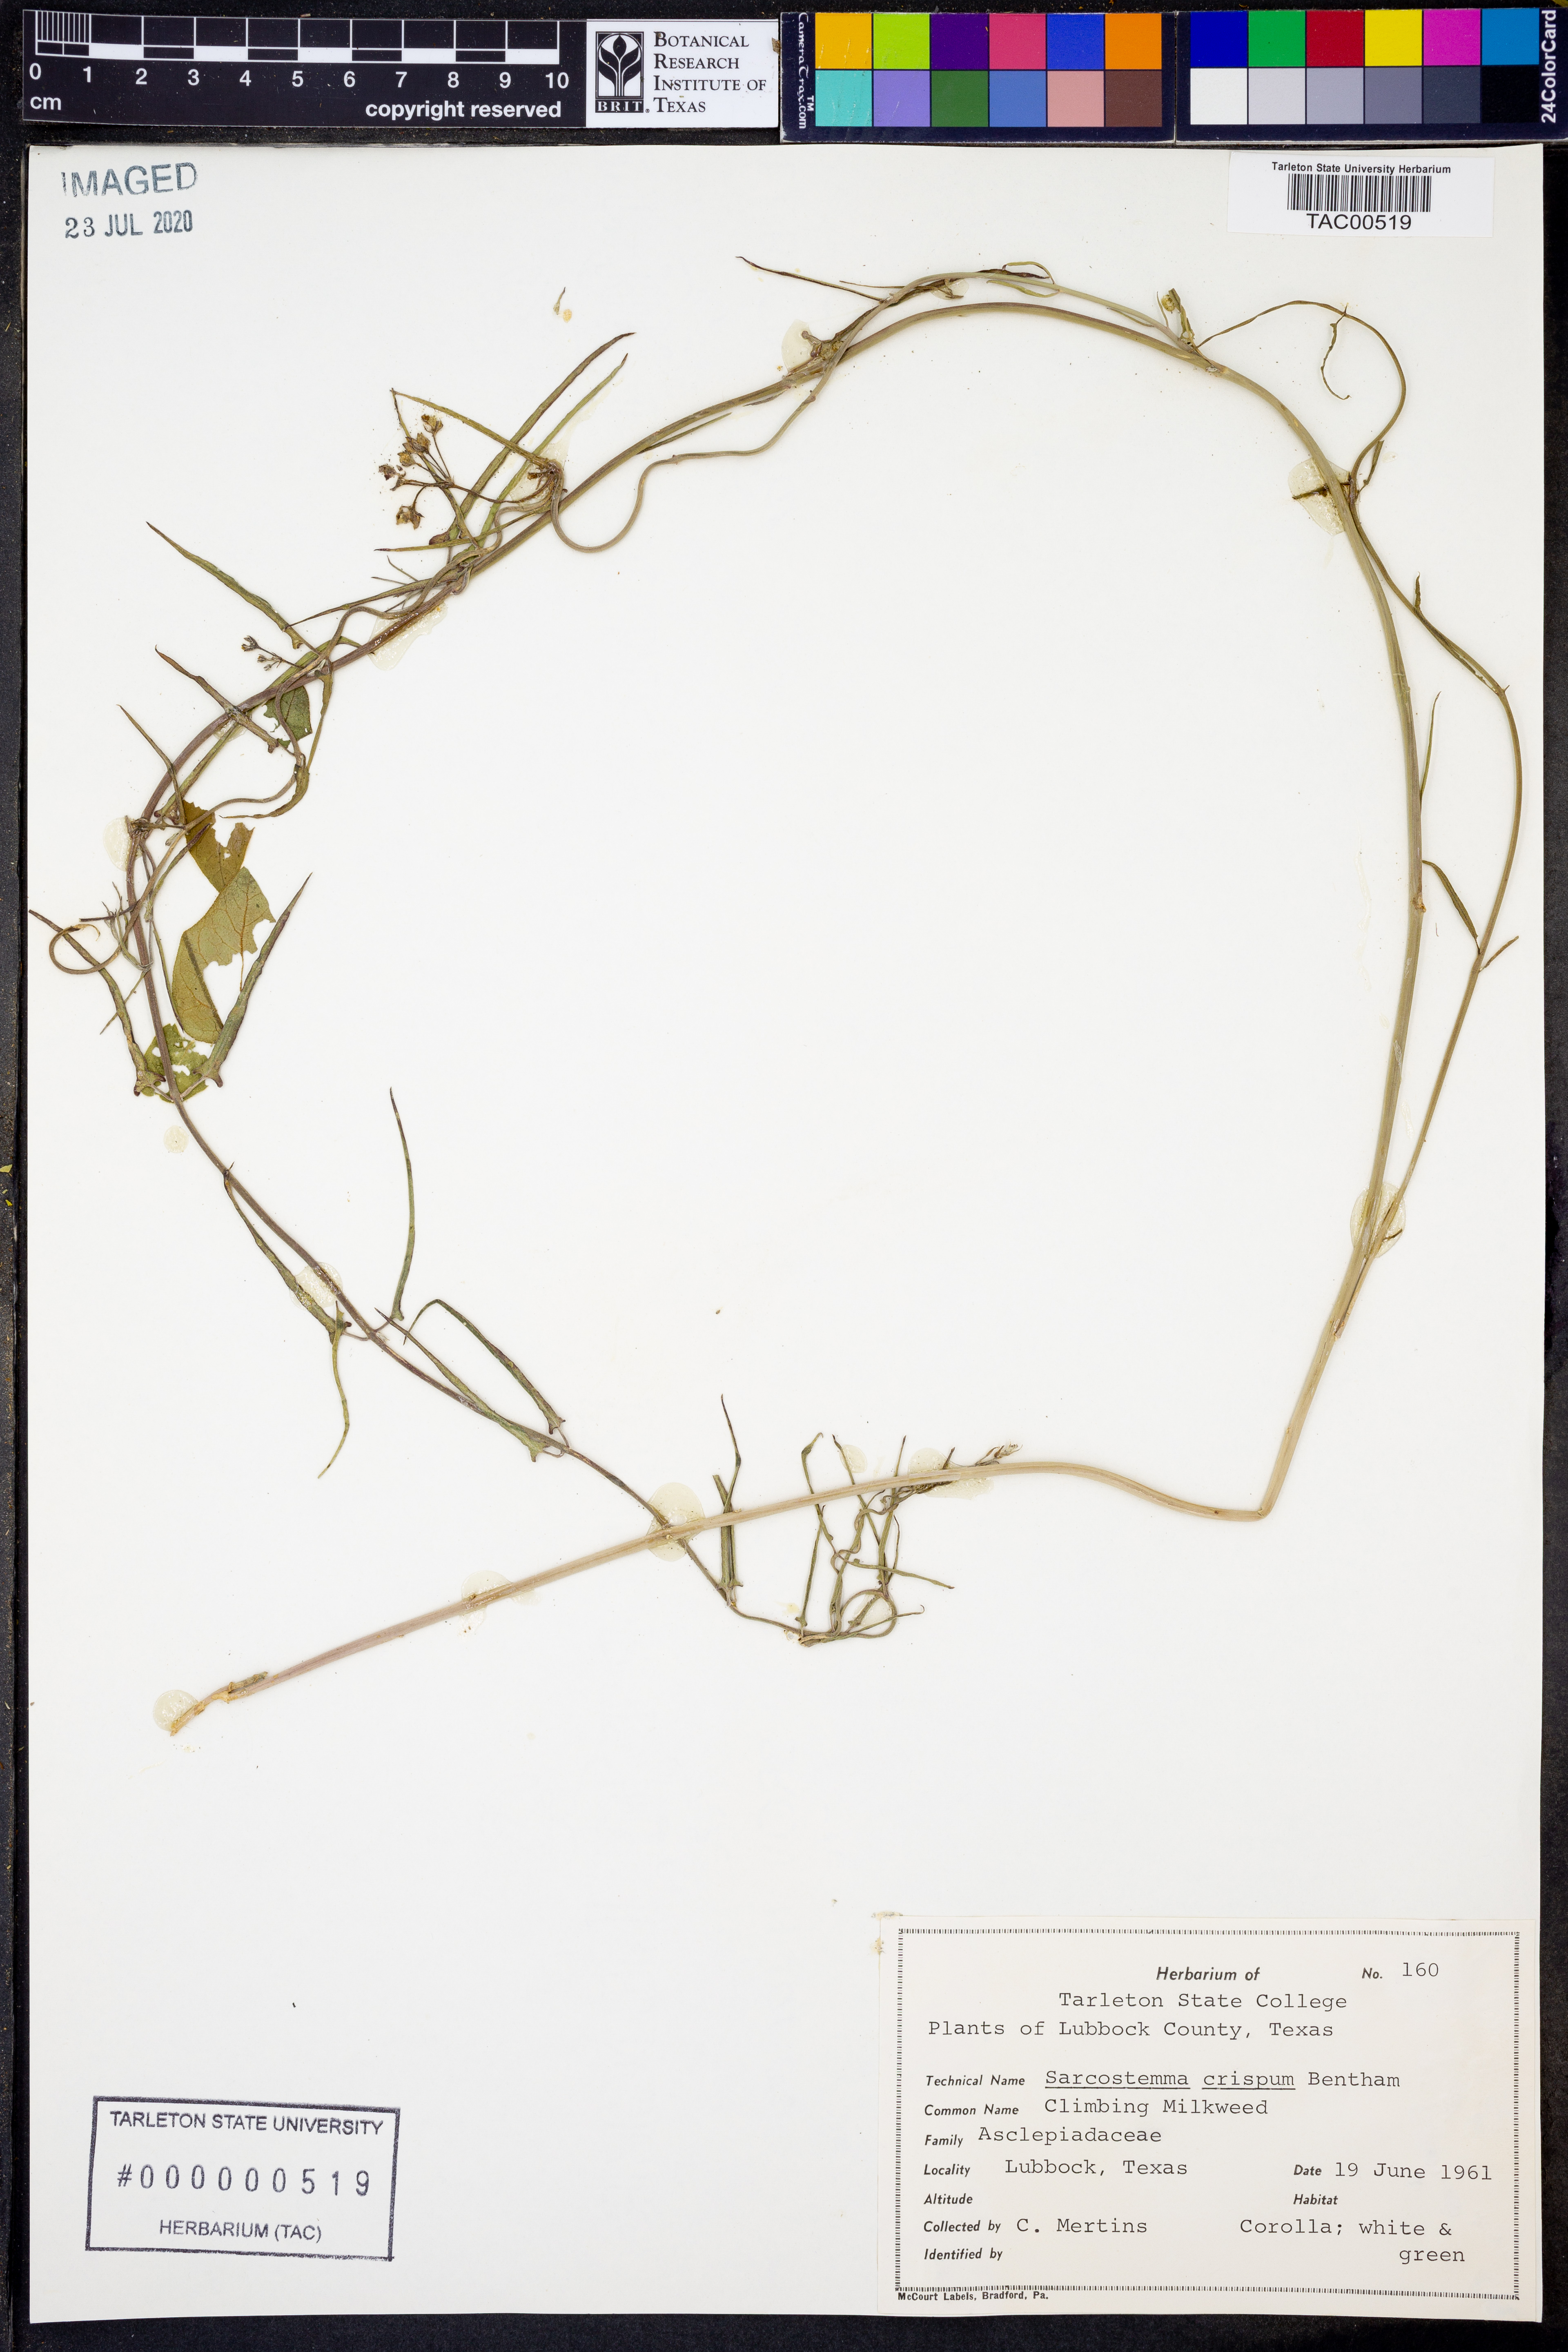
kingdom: Plantae
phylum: Tracheophyta
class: Magnoliopsida
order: Gentianales
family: Apocynaceae
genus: Funastrum
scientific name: Funastrum crispum
